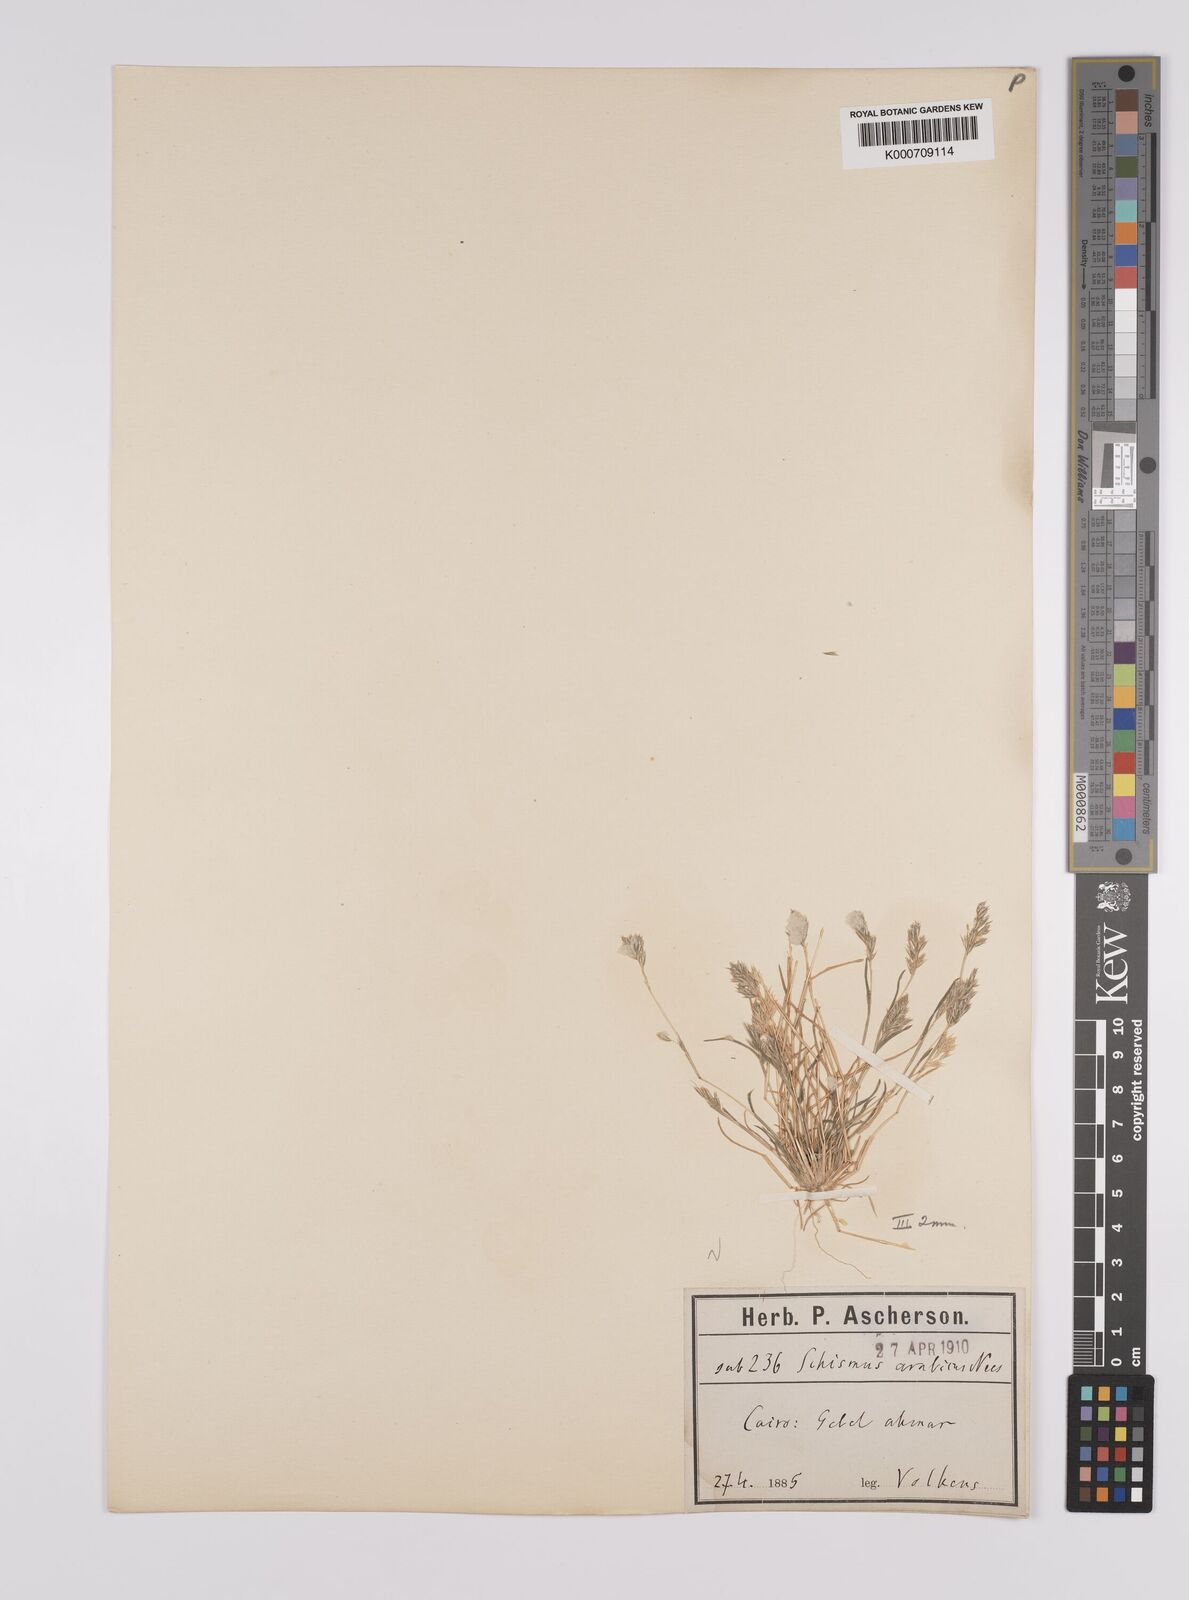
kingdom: Plantae
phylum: Tracheophyta
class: Liliopsida
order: Poales
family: Poaceae
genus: Schismus
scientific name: Schismus arabicus
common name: Arabian schismus
